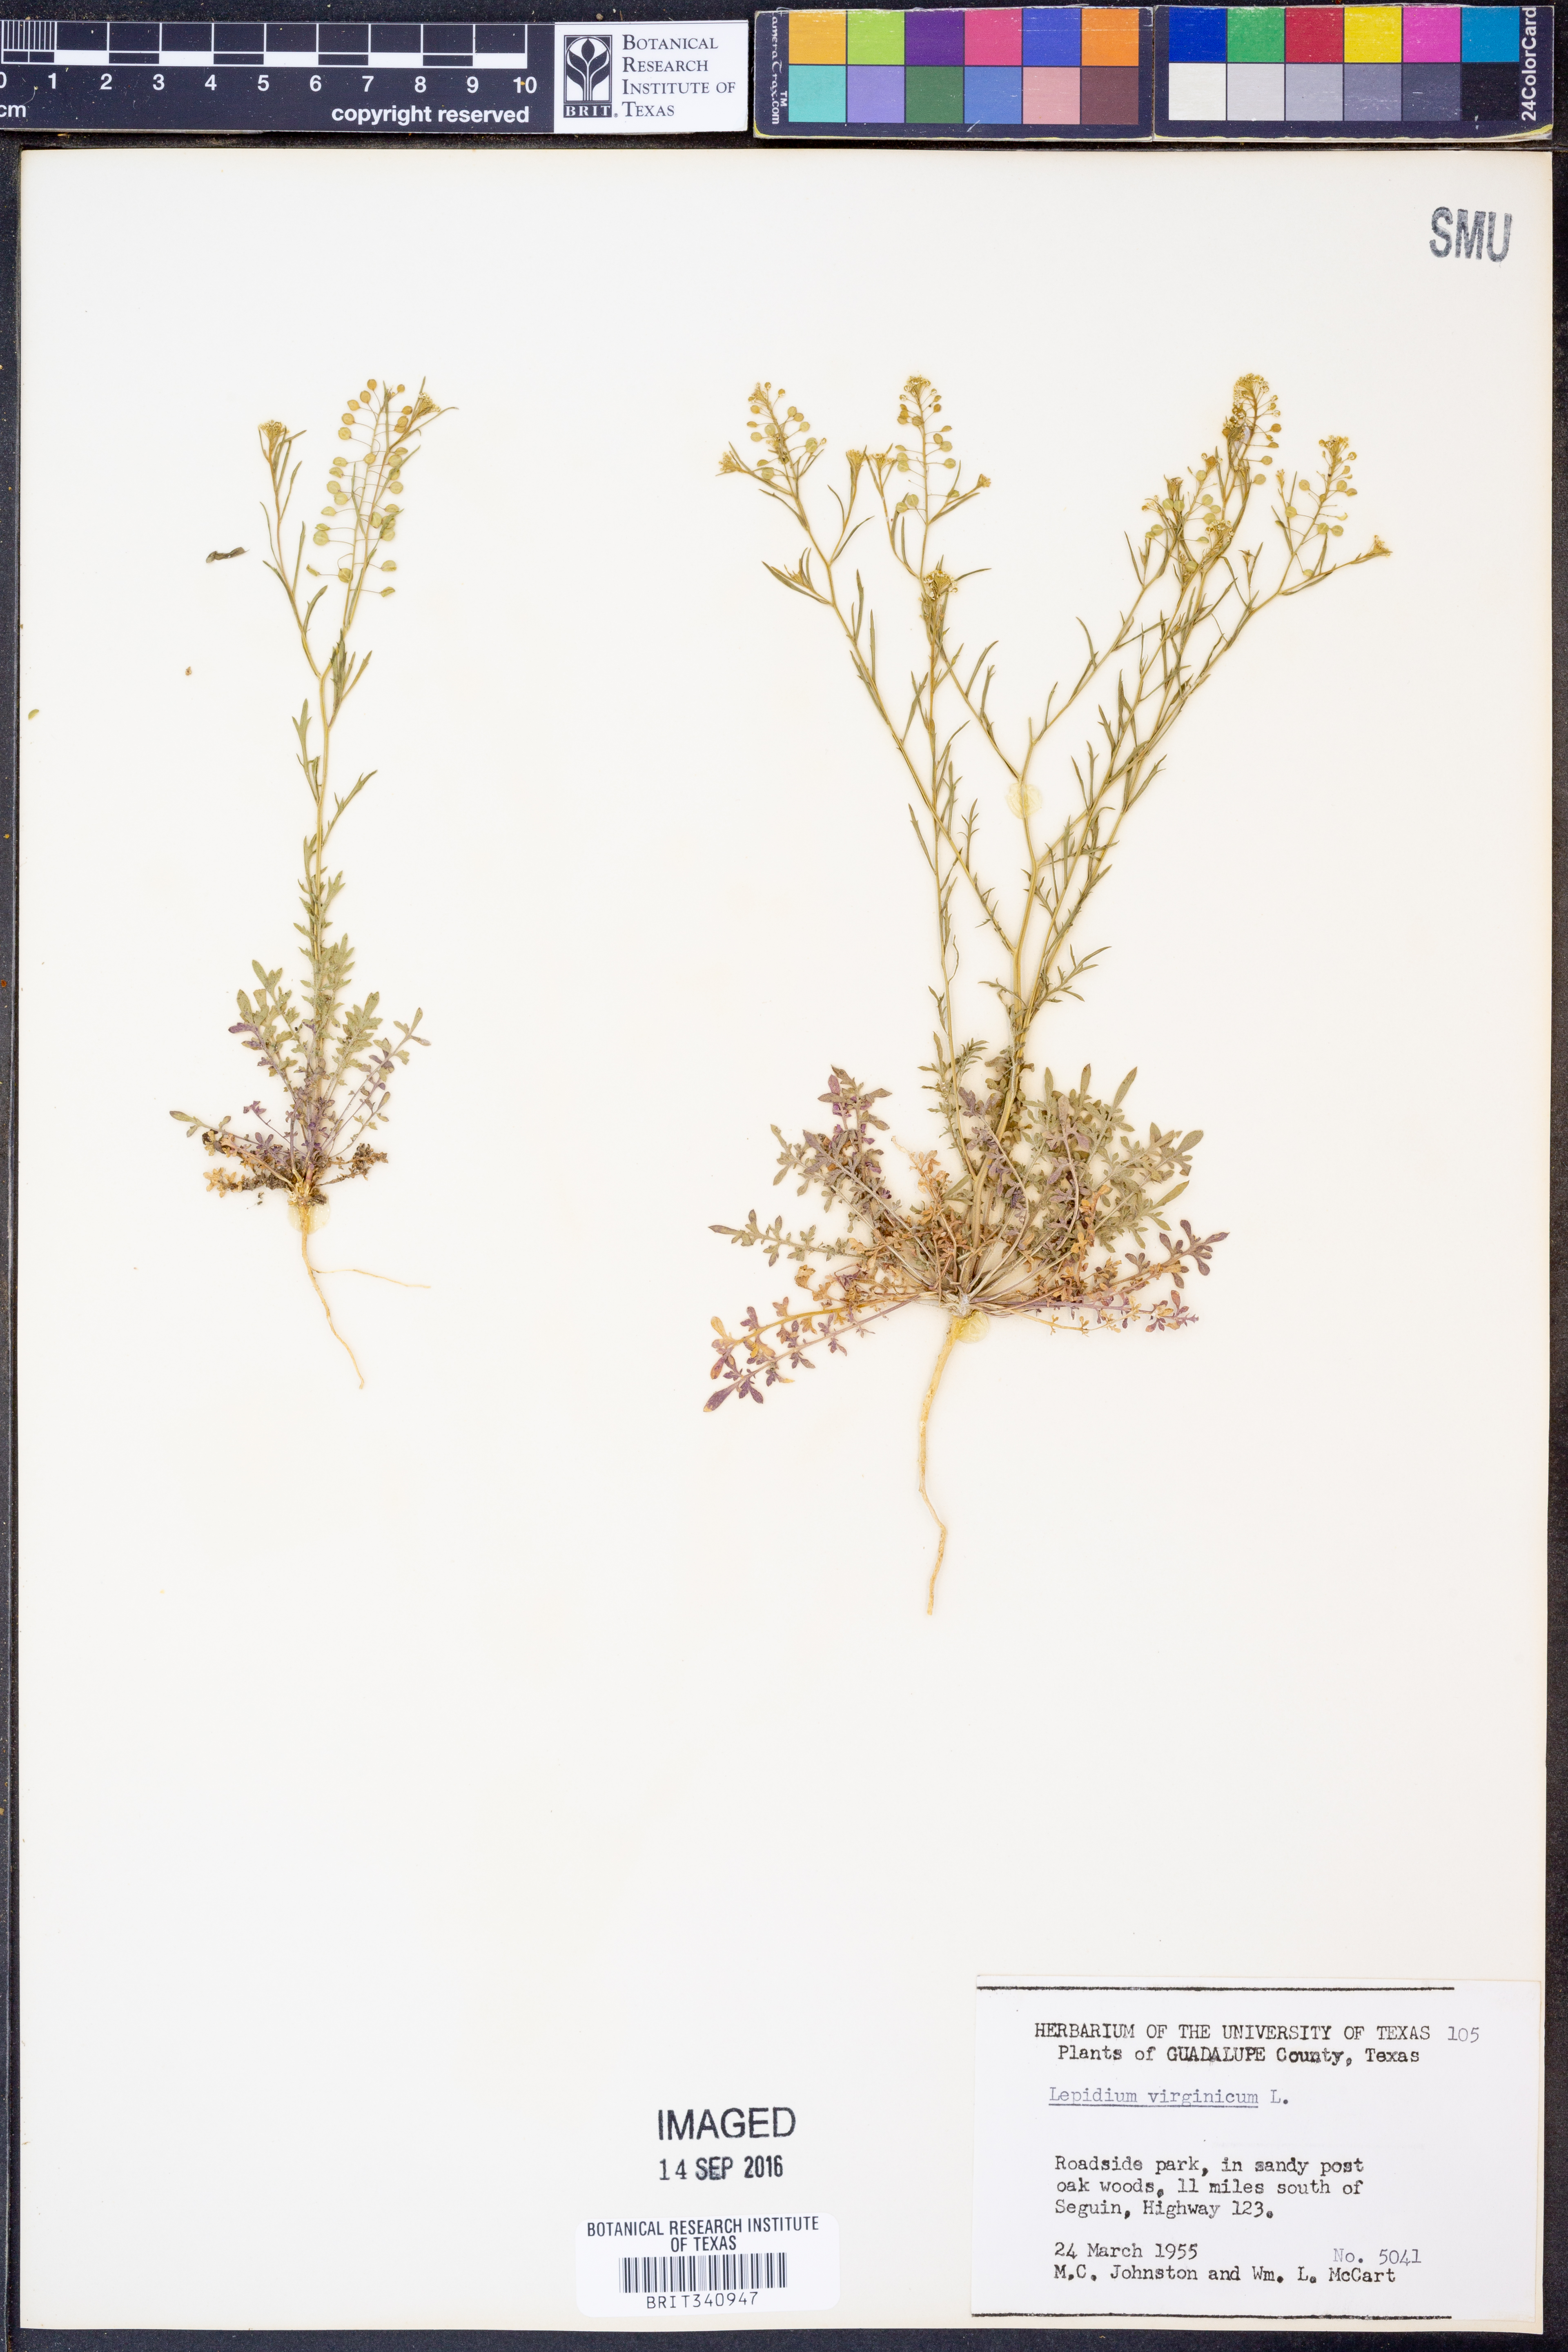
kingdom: Plantae
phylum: Tracheophyta
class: Magnoliopsida
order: Brassicales
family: Brassicaceae
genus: Lepidium
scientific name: Lepidium virginicum
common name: Least pepperwort
